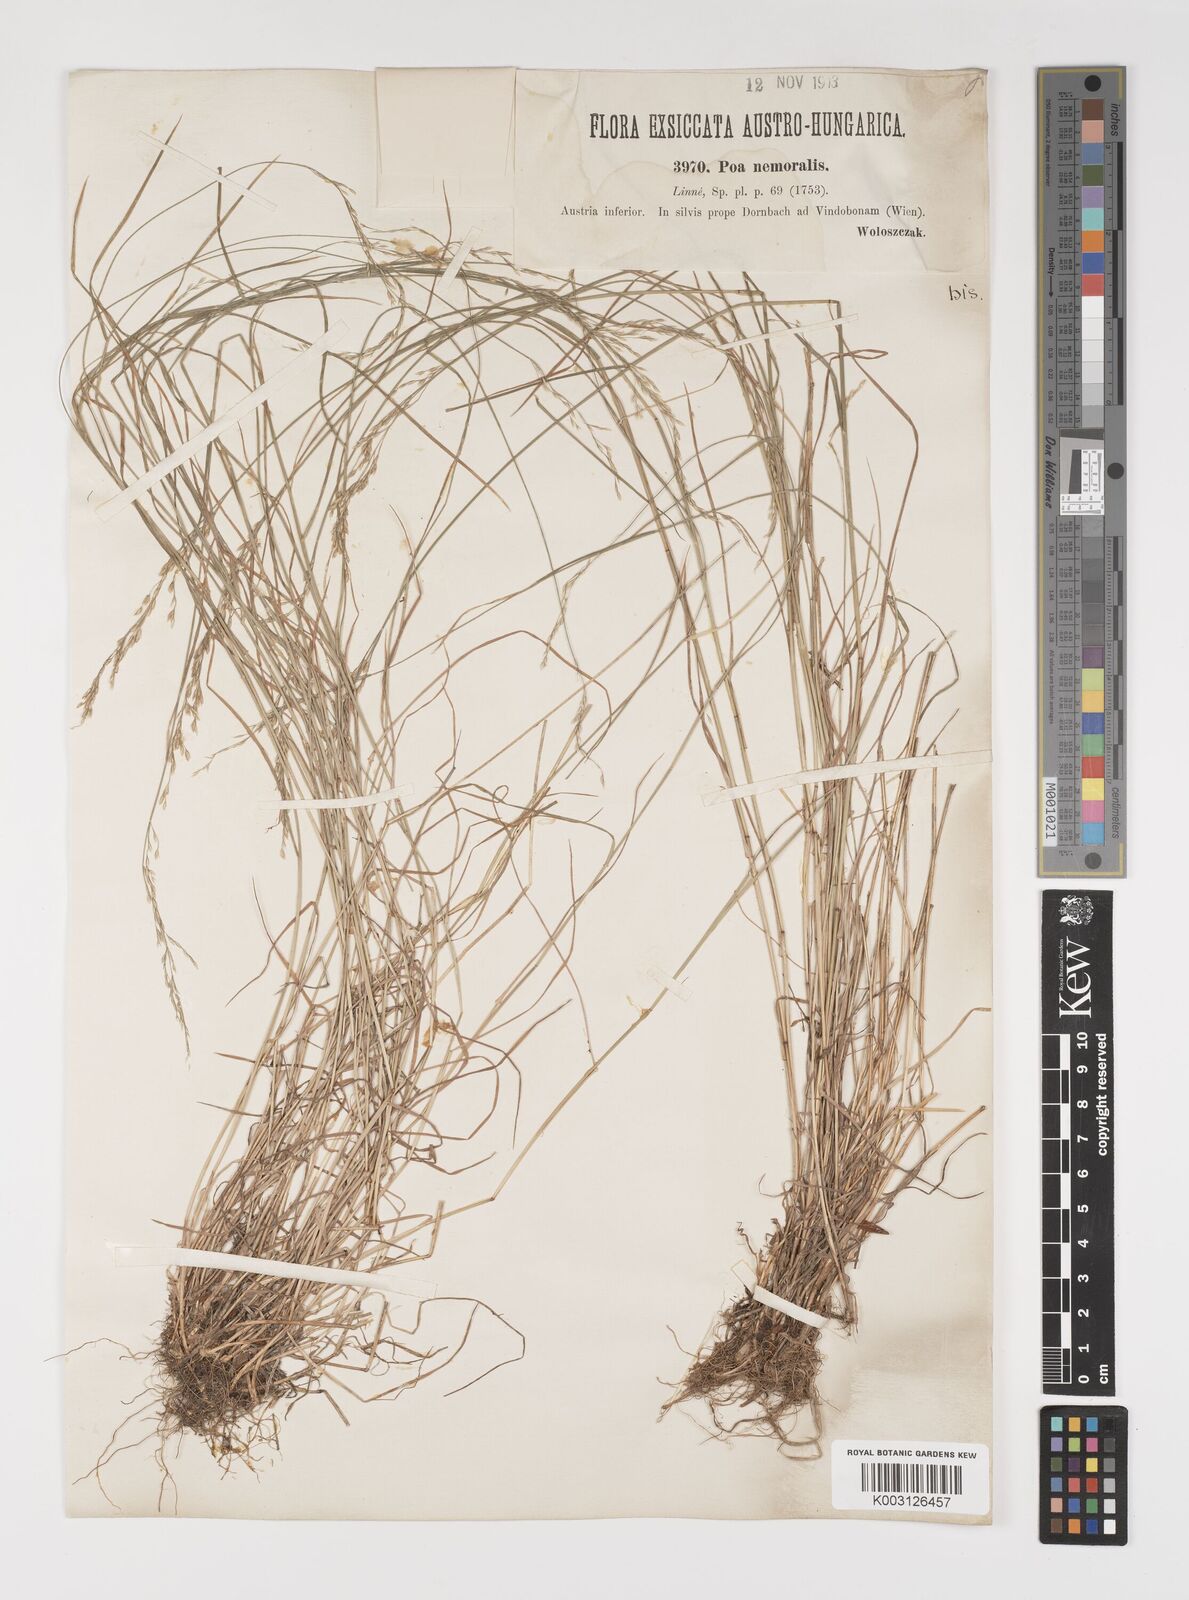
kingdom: Plantae
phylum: Tracheophyta
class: Liliopsida
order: Poales
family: Poaceae
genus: Poa
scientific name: Poa nemoralis
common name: Wood bluegrass
